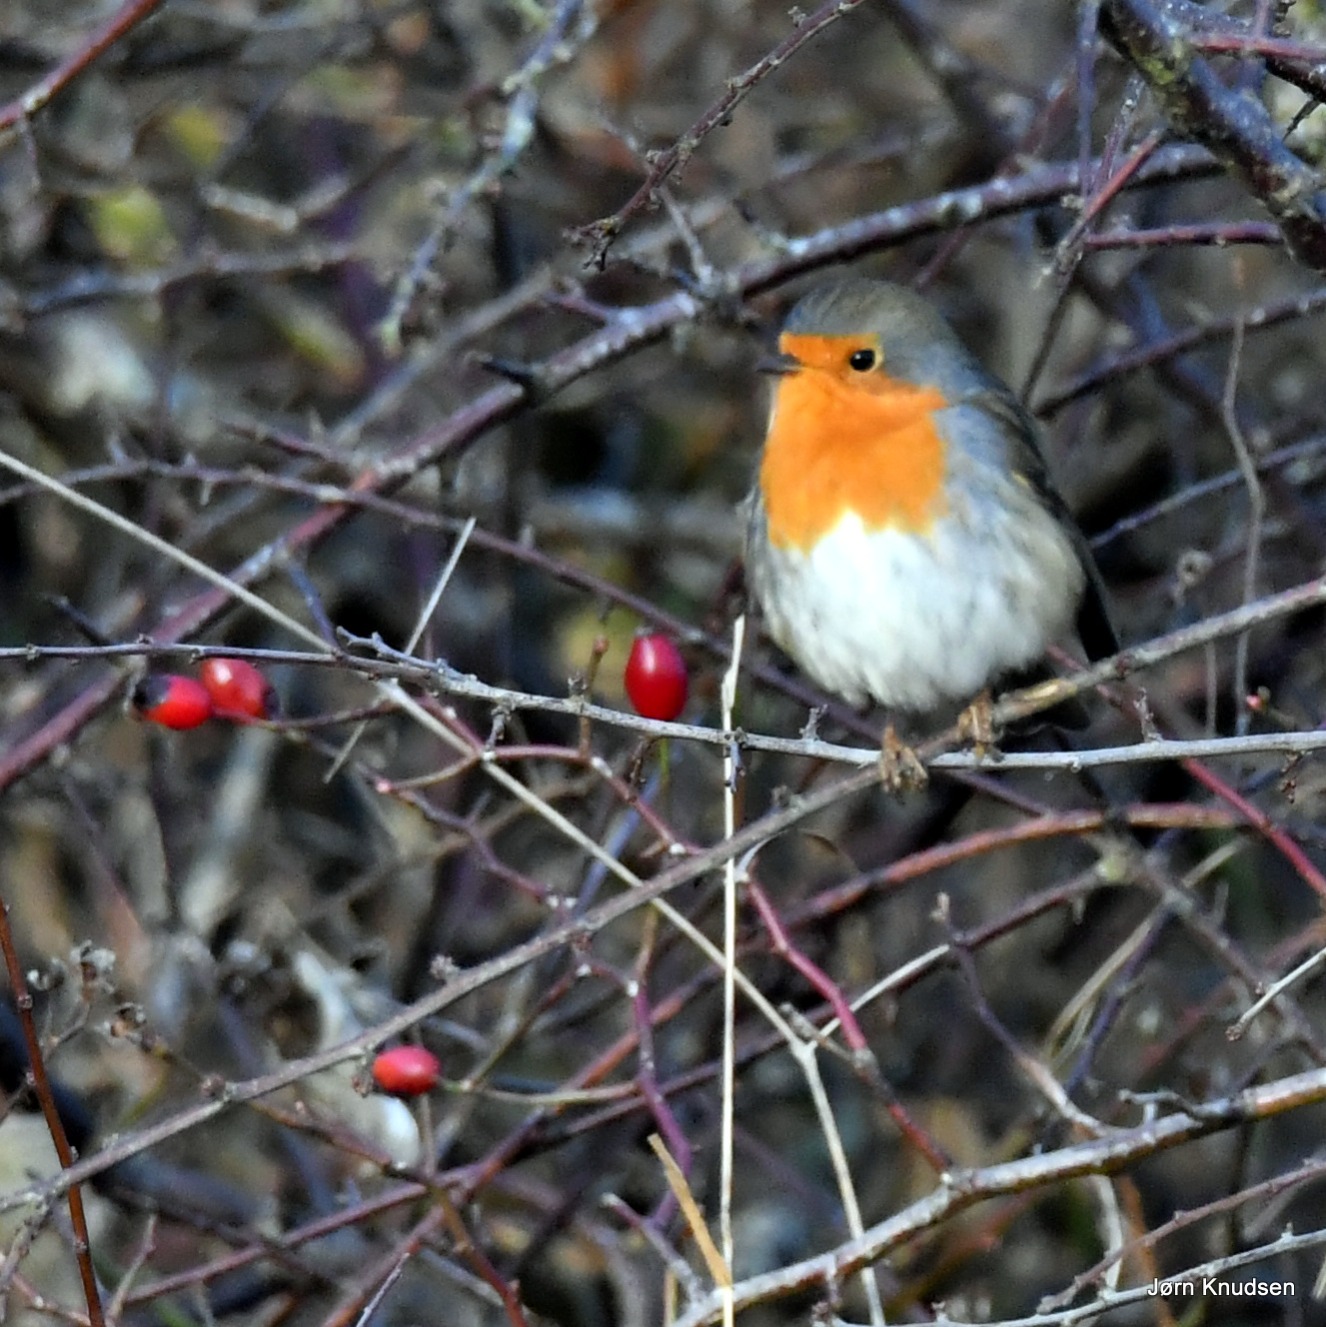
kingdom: Animalia
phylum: Chordata
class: Aves
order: Passeriformes
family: Muscicapidae
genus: Erithacus
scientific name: Erithacus rubecula
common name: Rødhals/rødkælk
